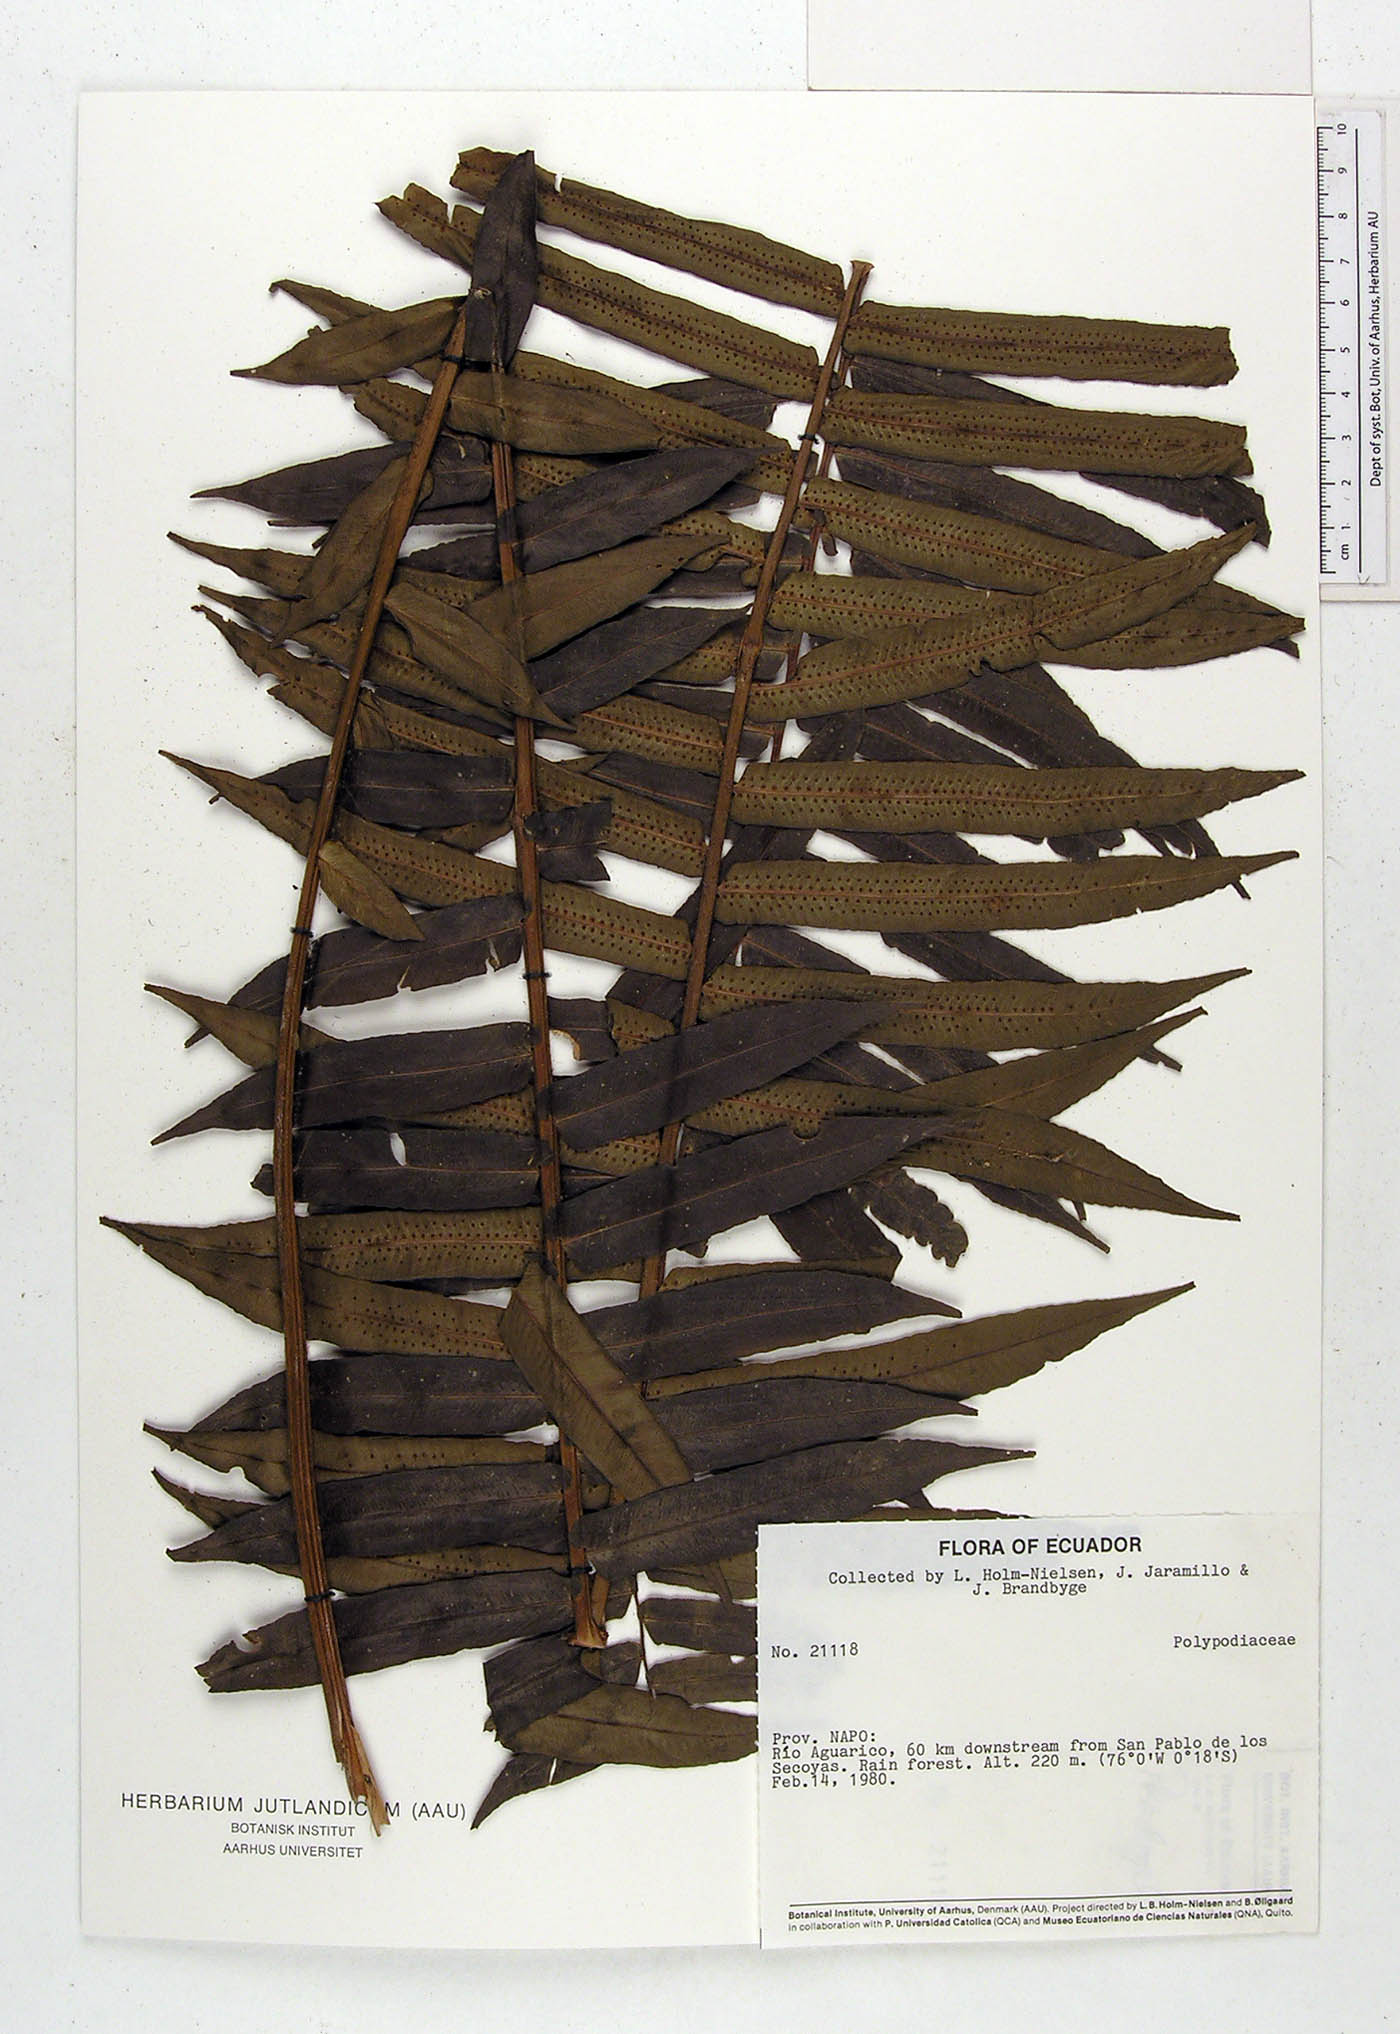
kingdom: Plantae
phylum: Tracheophyta
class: Polypodiopsida
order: Polypodiales
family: Lomariopsidaceae
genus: Cyclopeltis
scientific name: Cyclopeltis semicordata
